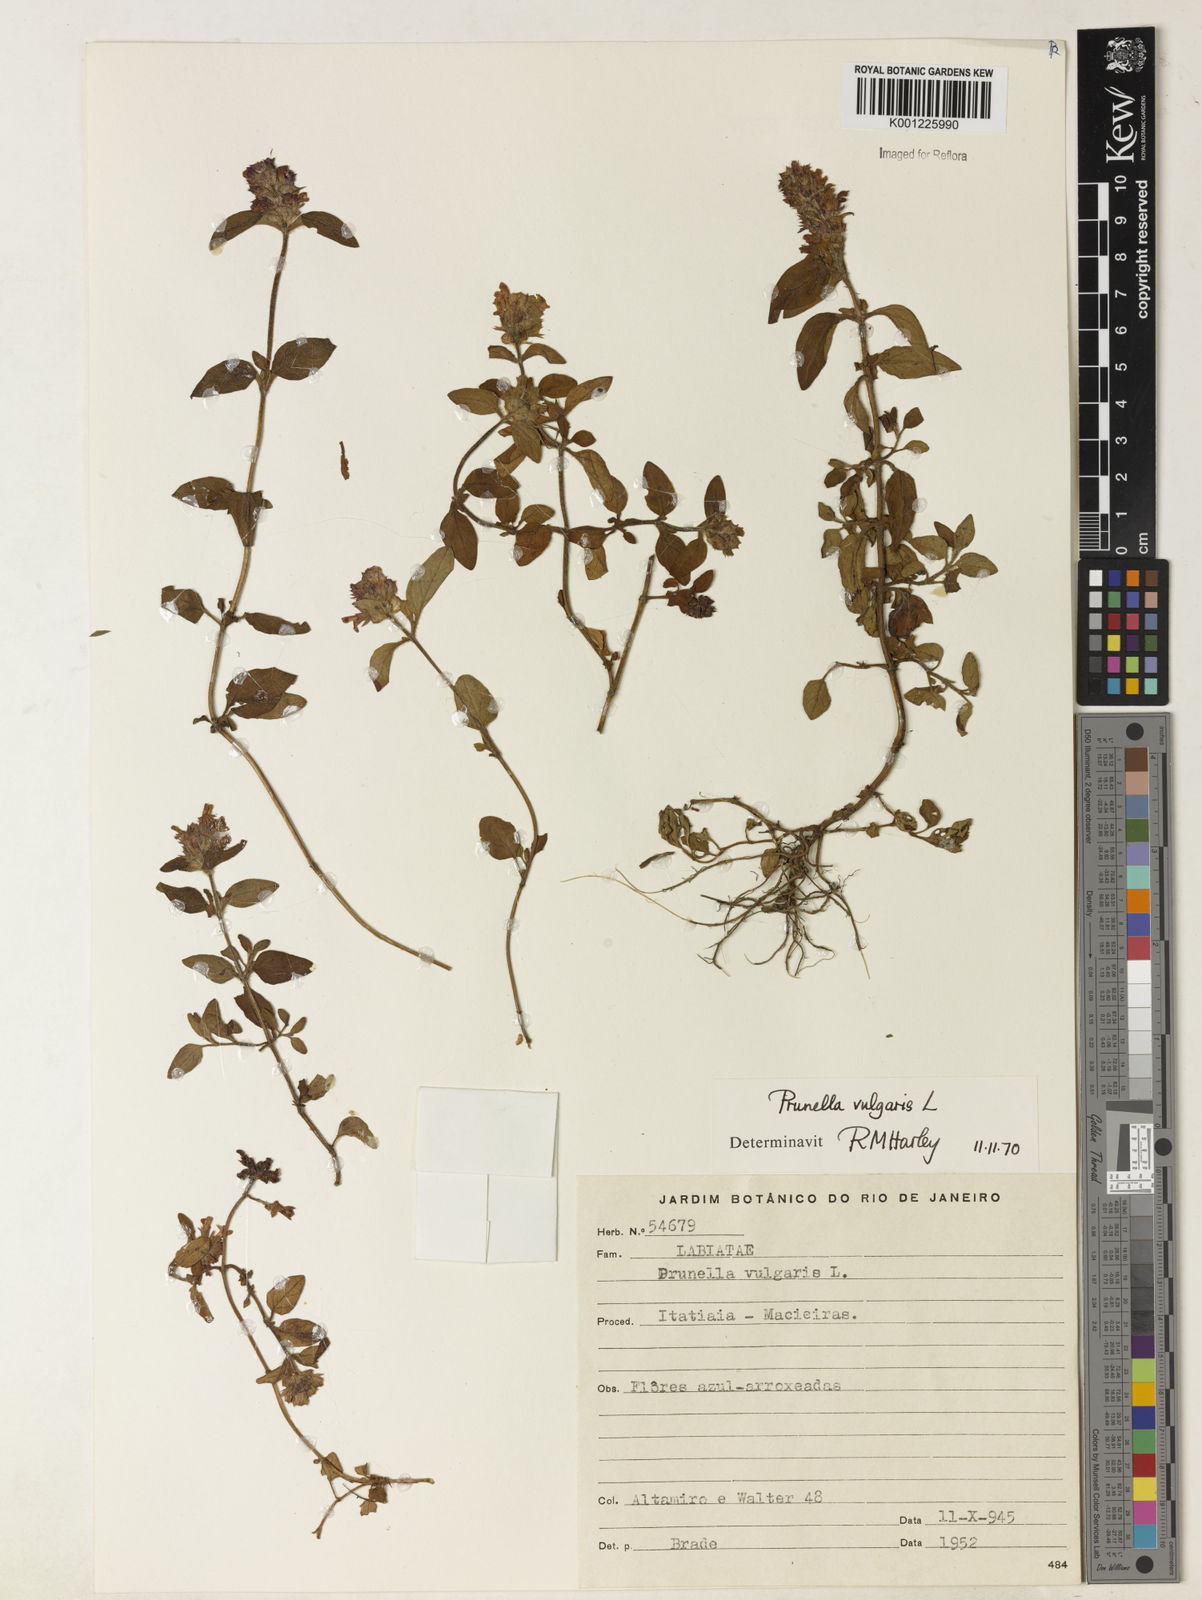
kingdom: Plantae
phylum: Tracheophyta
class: Magnoliopsida
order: Lamiales
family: Lamiaceae
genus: Prunella
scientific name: Prunella vulgaris
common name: Heal-all
